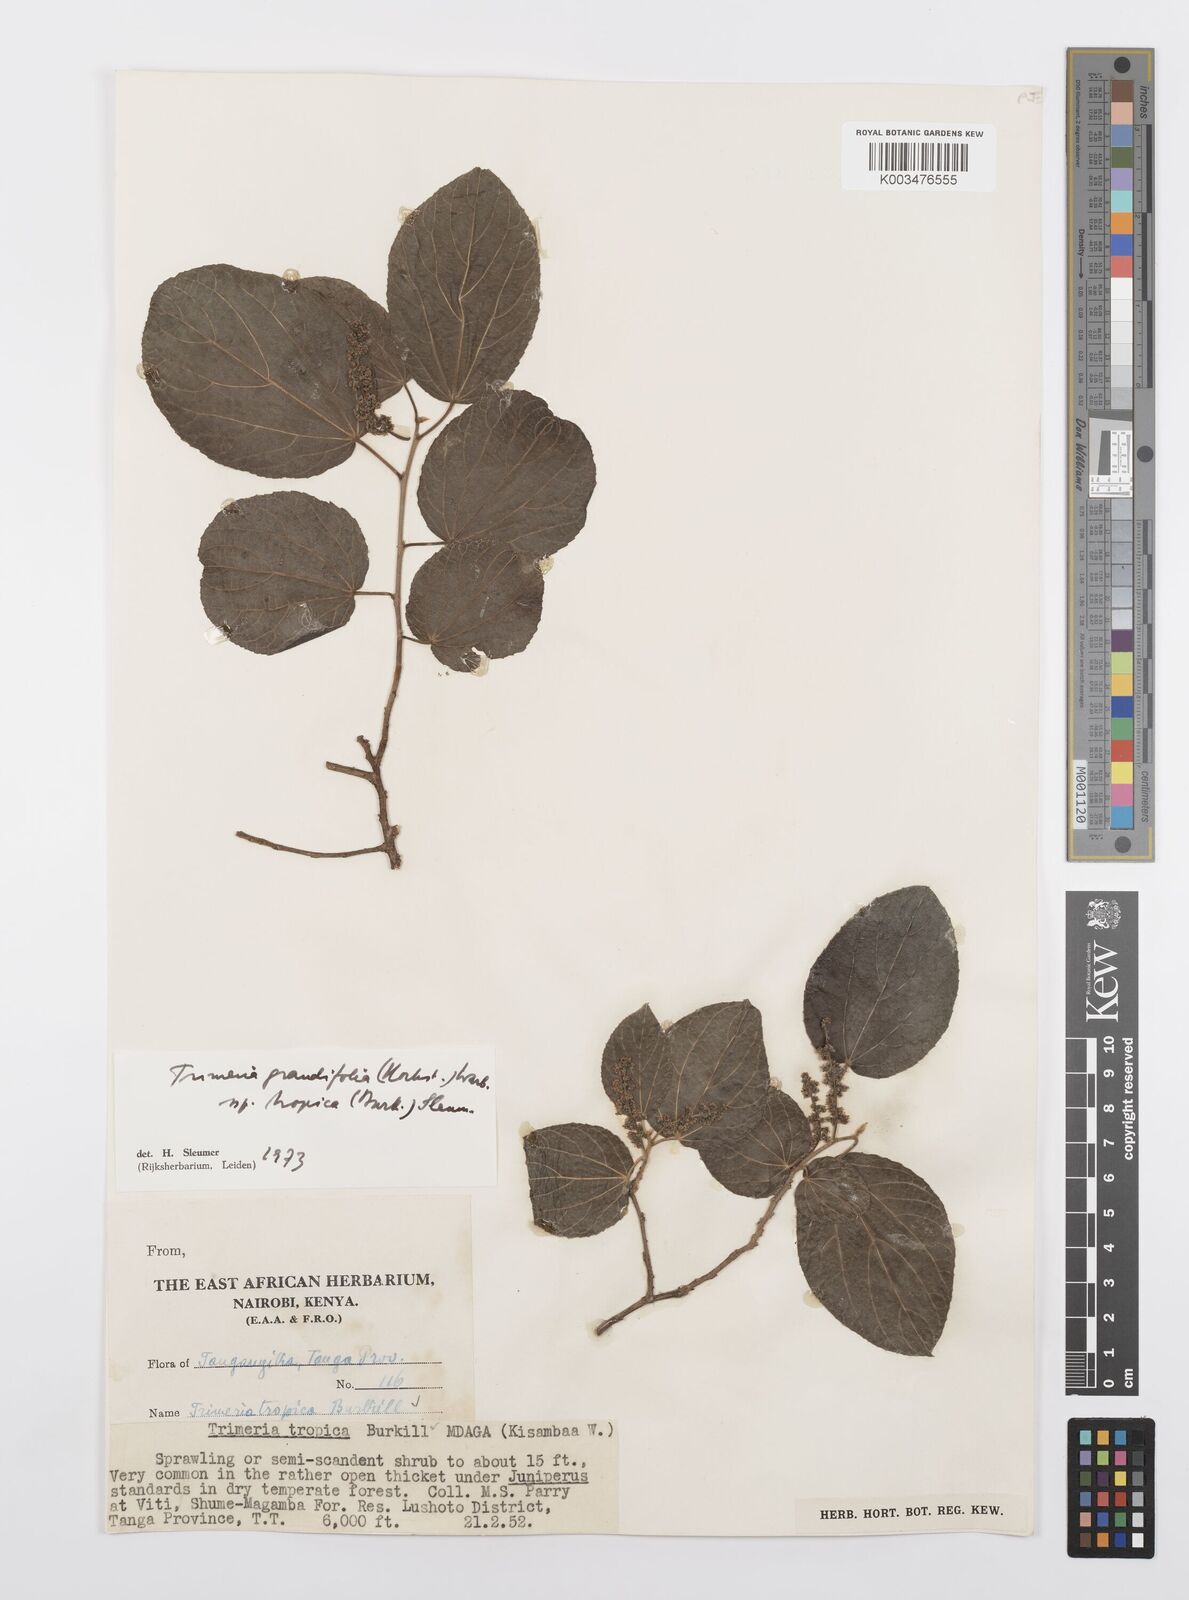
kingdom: Plantae
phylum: Tracheophyta
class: Magnoliopsida
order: Malpighiales
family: Salicaceae
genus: Trimeria
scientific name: Trimeria grandifolia
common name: Wild mulberry
